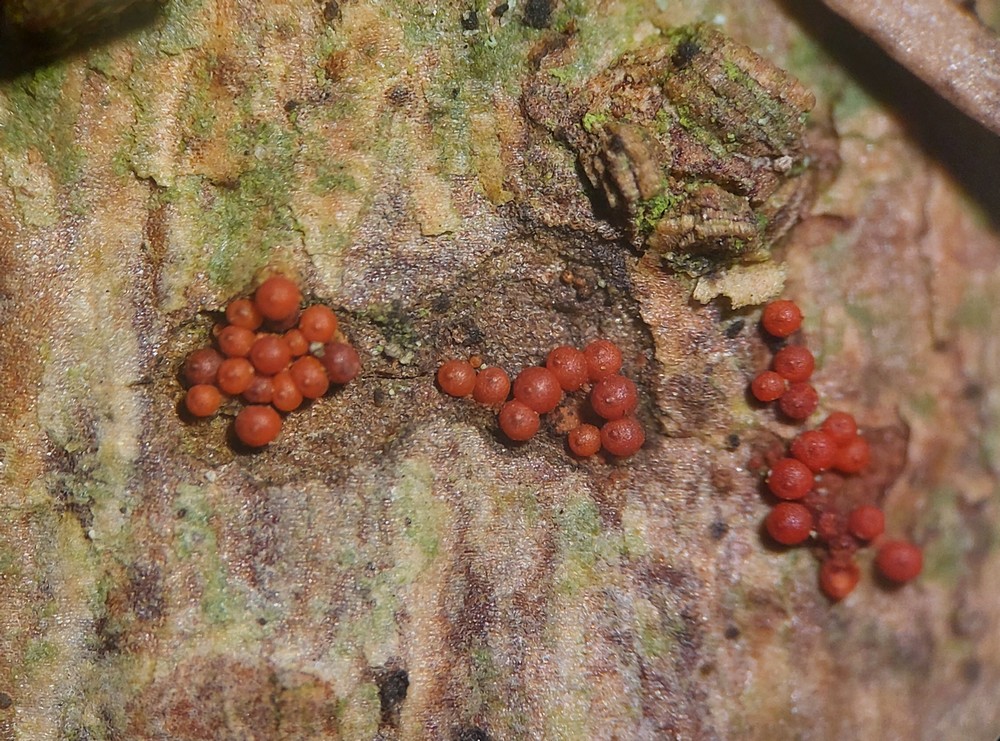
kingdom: Fungi
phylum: Ascomycota
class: Sordariomycetes
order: Hypocreales
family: Nectriaceae
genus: Corinectria
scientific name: Corinectria fuckeliana
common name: grankræft-cinnobersvamp
